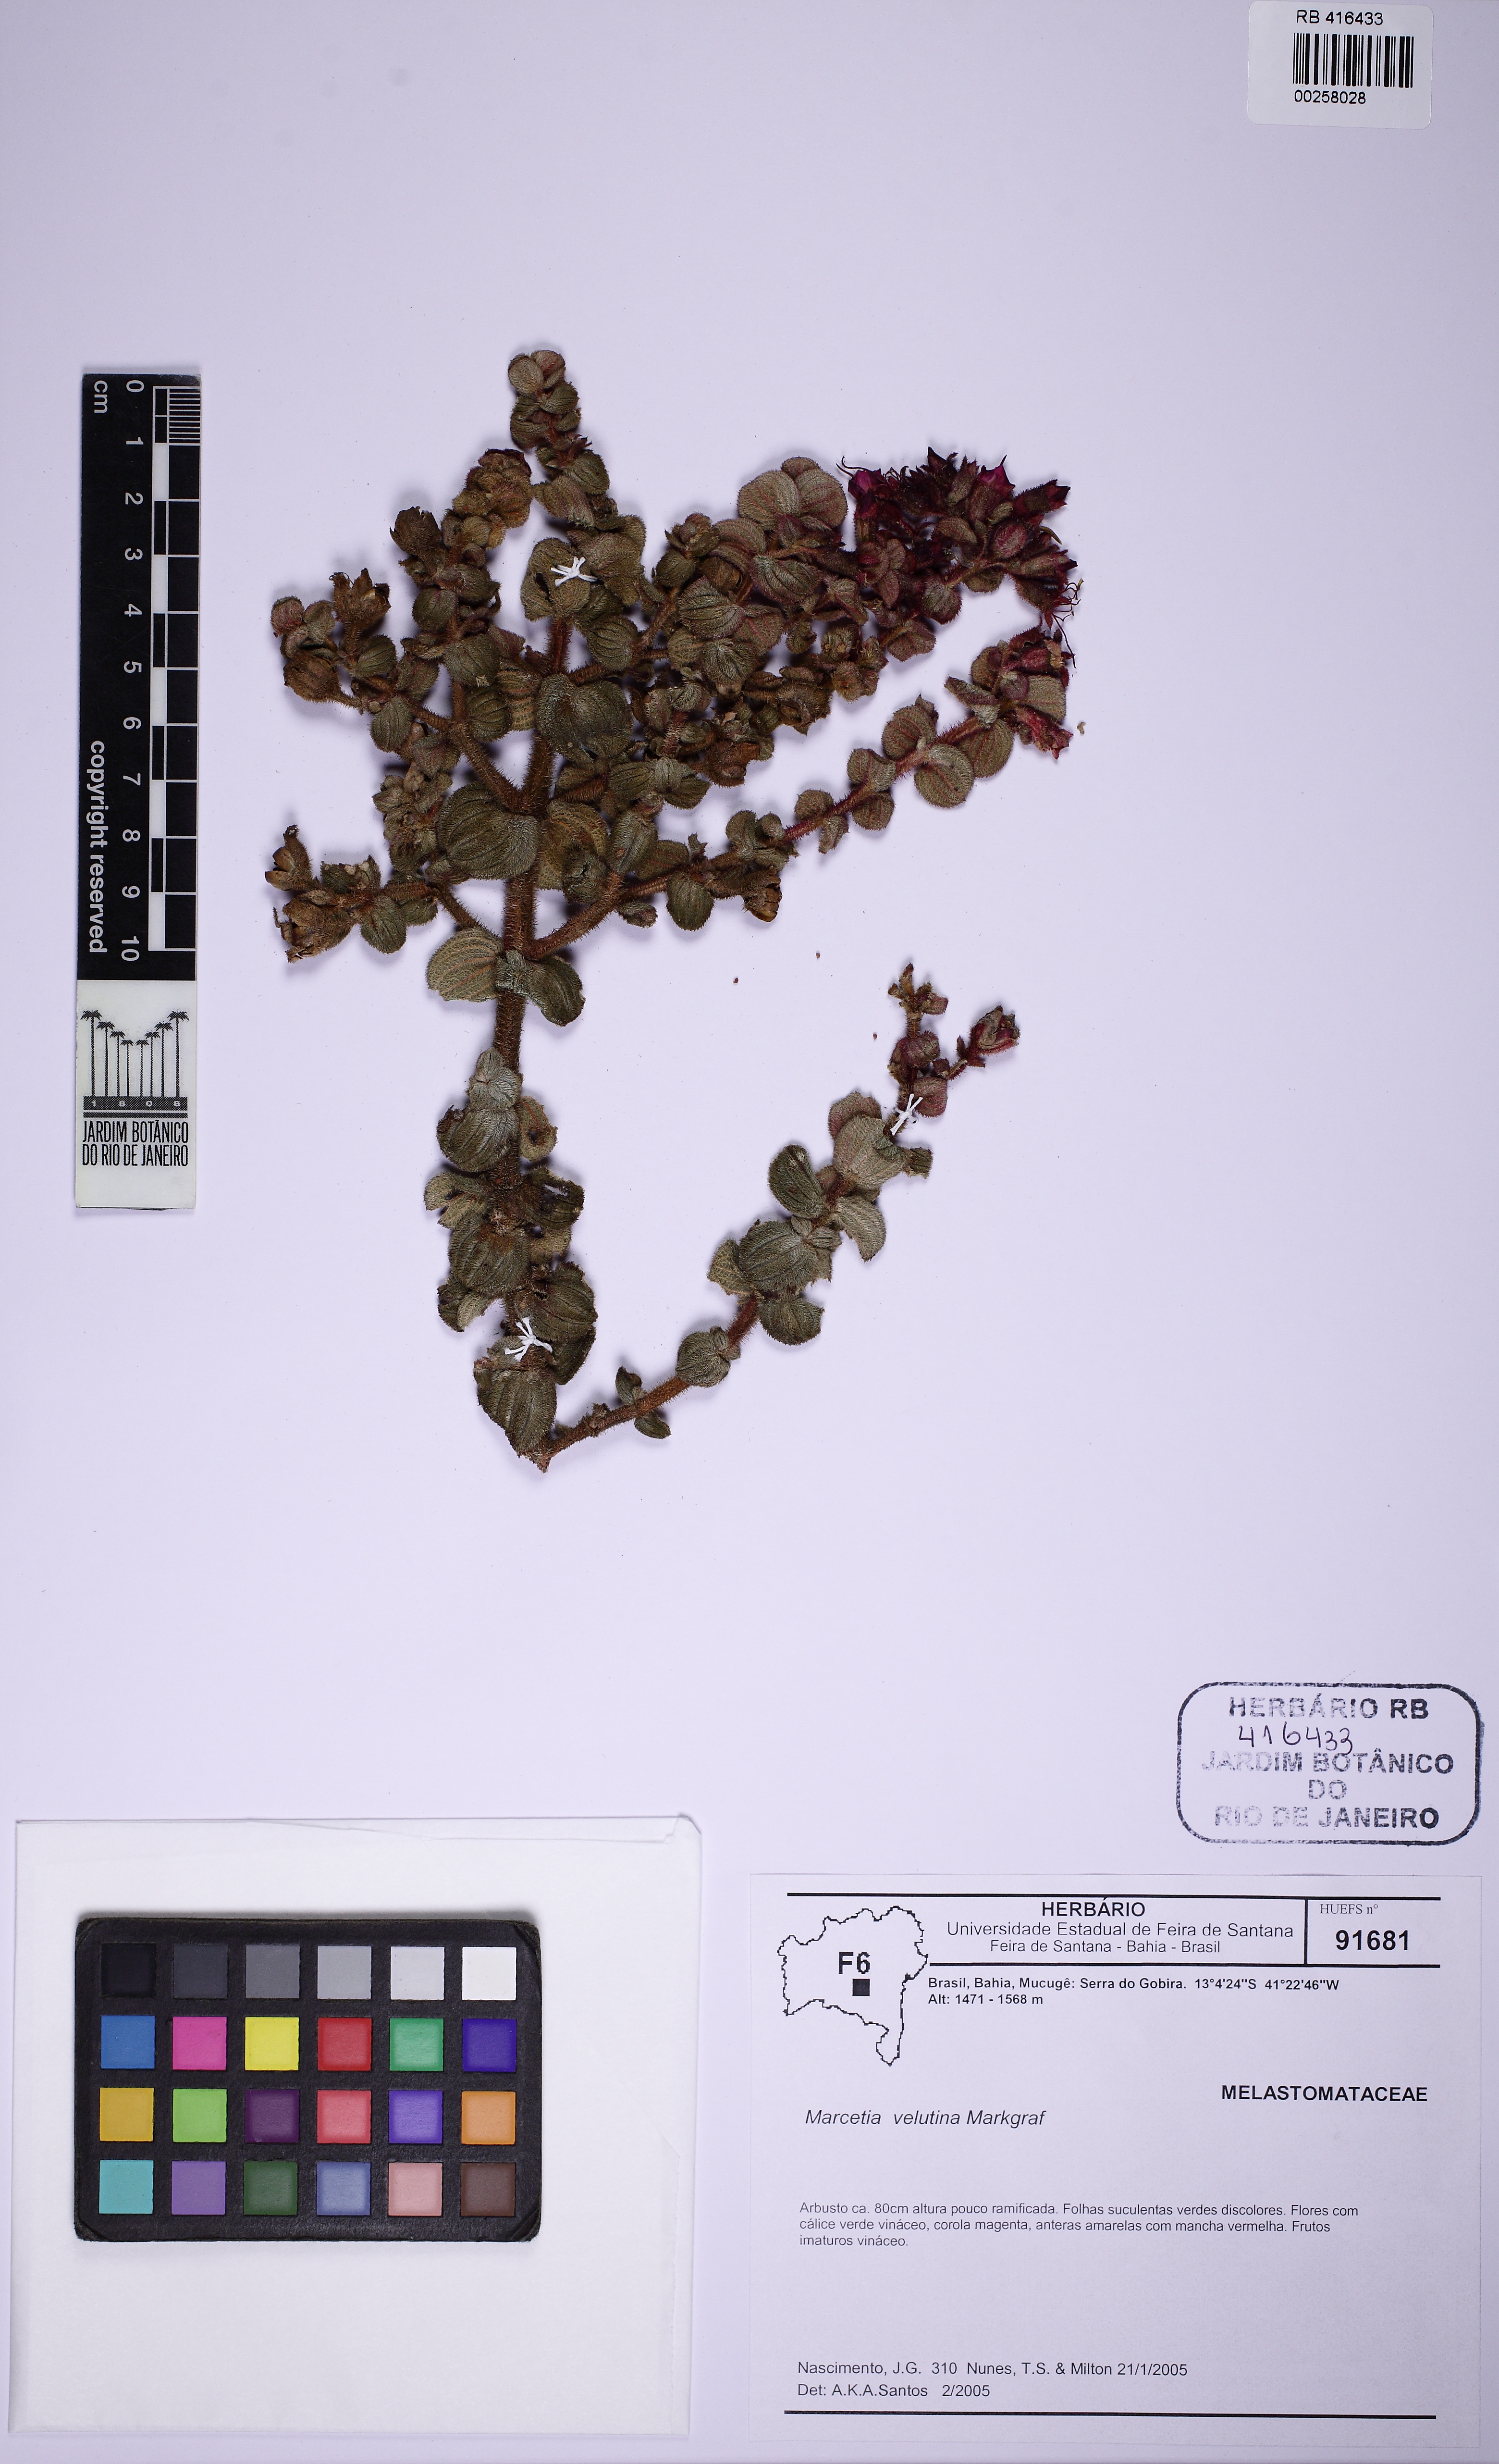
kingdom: Plantae
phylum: Tracheophyta
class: Magnoliopsida
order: Myrtales
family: Melastomataceae
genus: Marcetia
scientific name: Marcetia velutina
